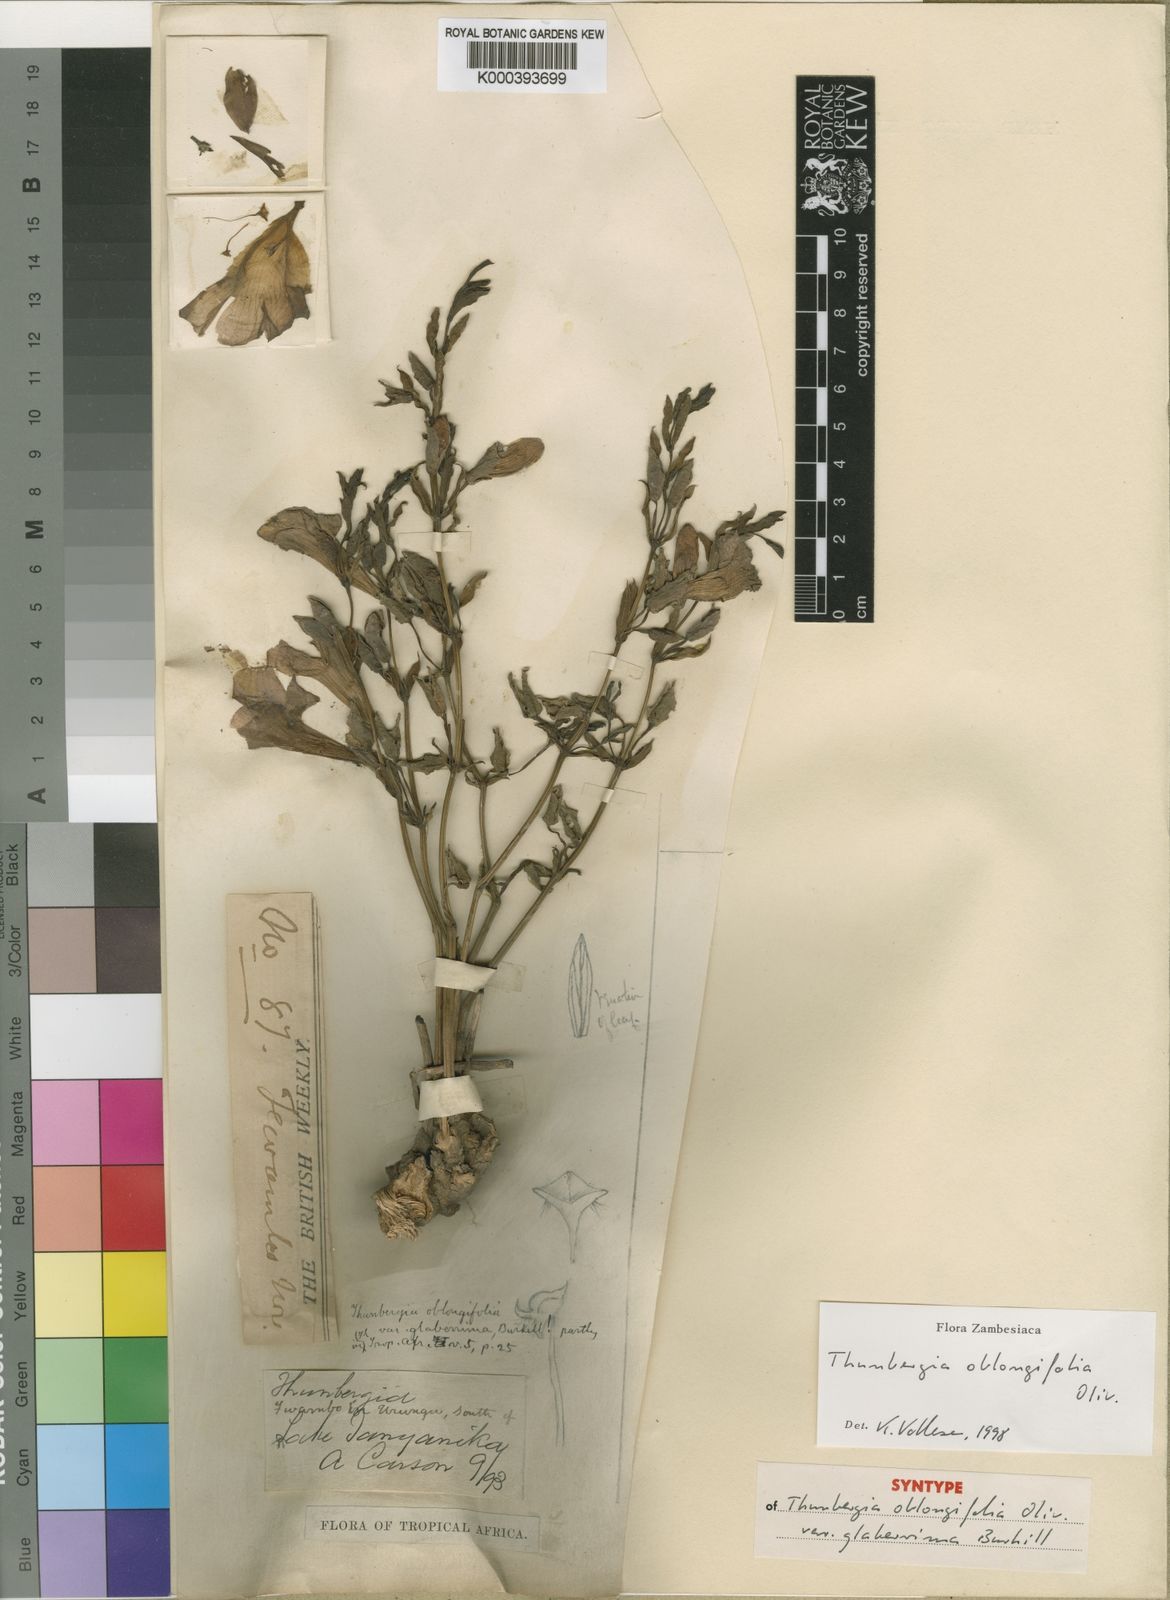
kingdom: Plantae
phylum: Tracheophyta
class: Magnoliopsida
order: Lamiales
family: Acanthaceae
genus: Thunbergia
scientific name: Thunbergia oblongifolia
